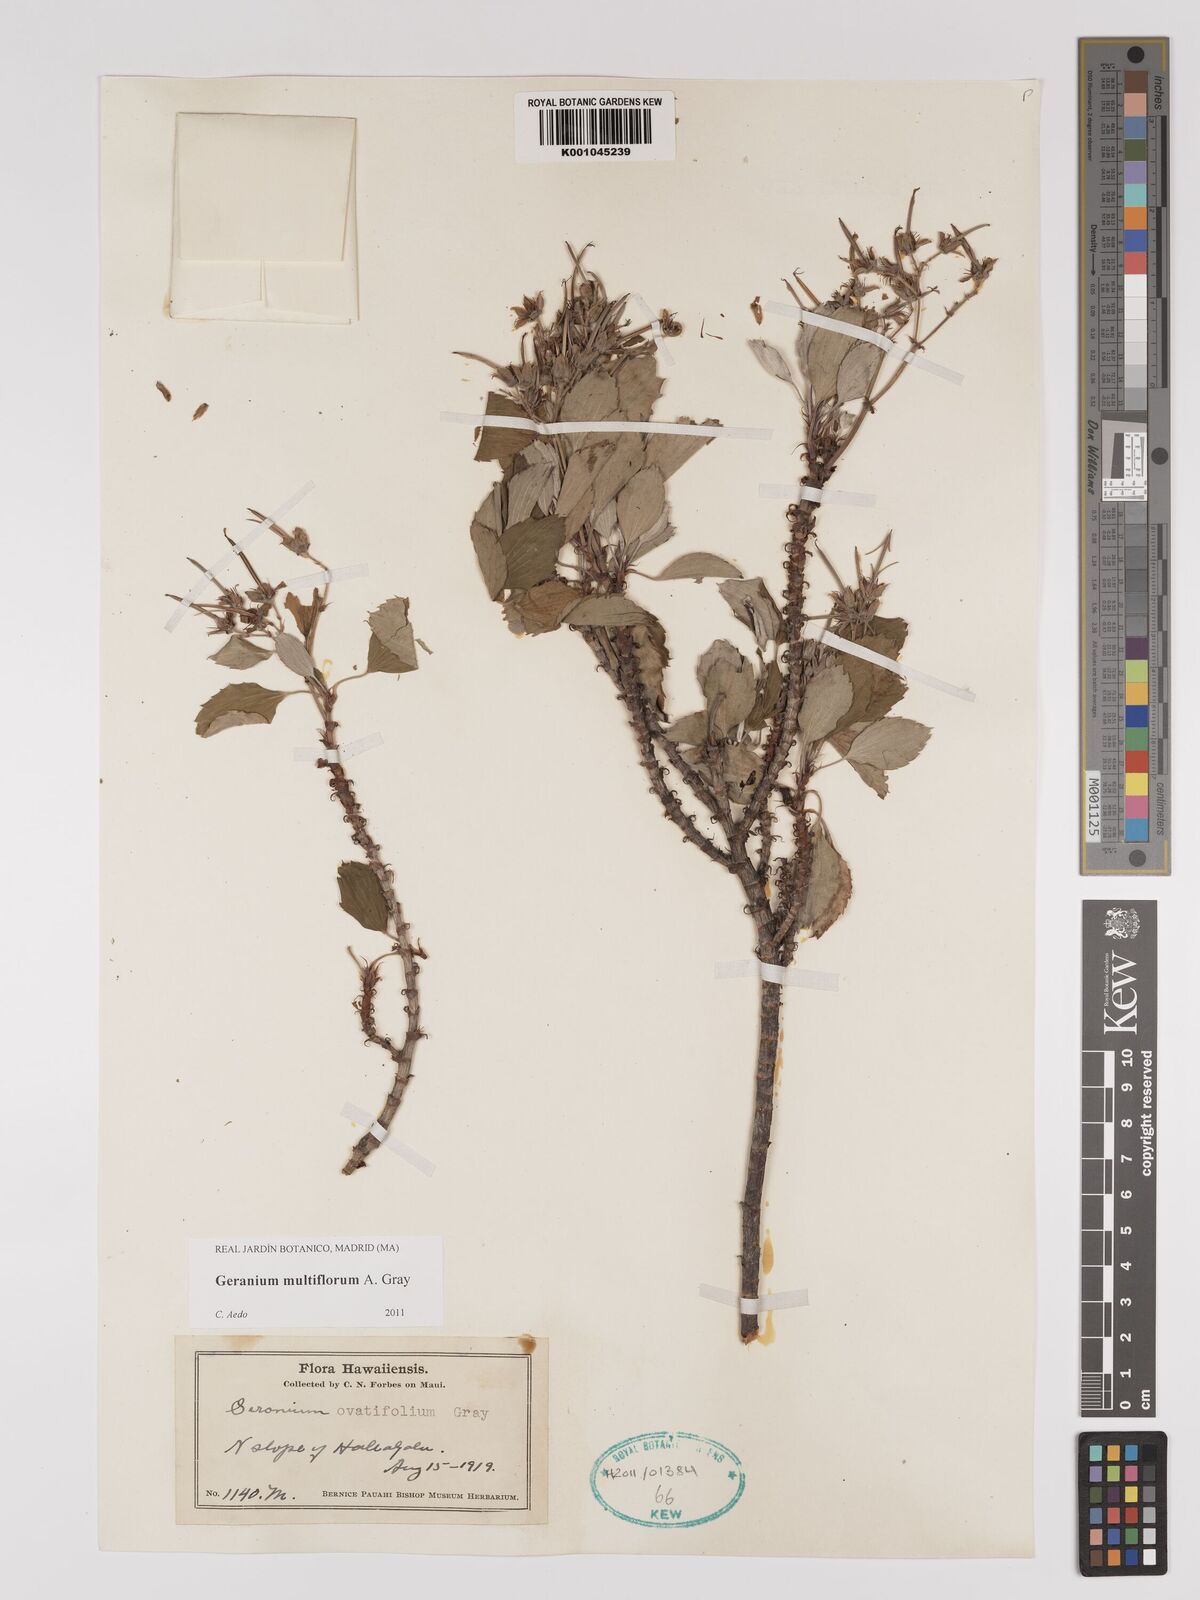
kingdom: Plantae
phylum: Tracheophyta
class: Magnoliopsida
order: Geraniales
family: Geraniaceae
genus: Geranium
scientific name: Geranium multiflorum
